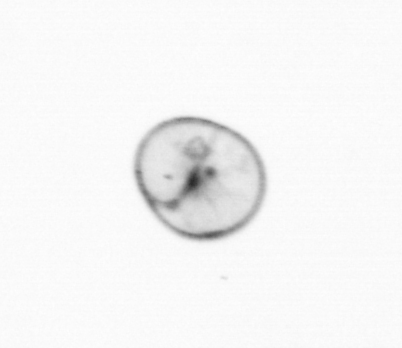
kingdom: Chromista
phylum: Myzozoa
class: Dinophyceae
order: Noctilucales
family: Noctilucaceae
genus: Noctiluca
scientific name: Noctiluca scintillans
